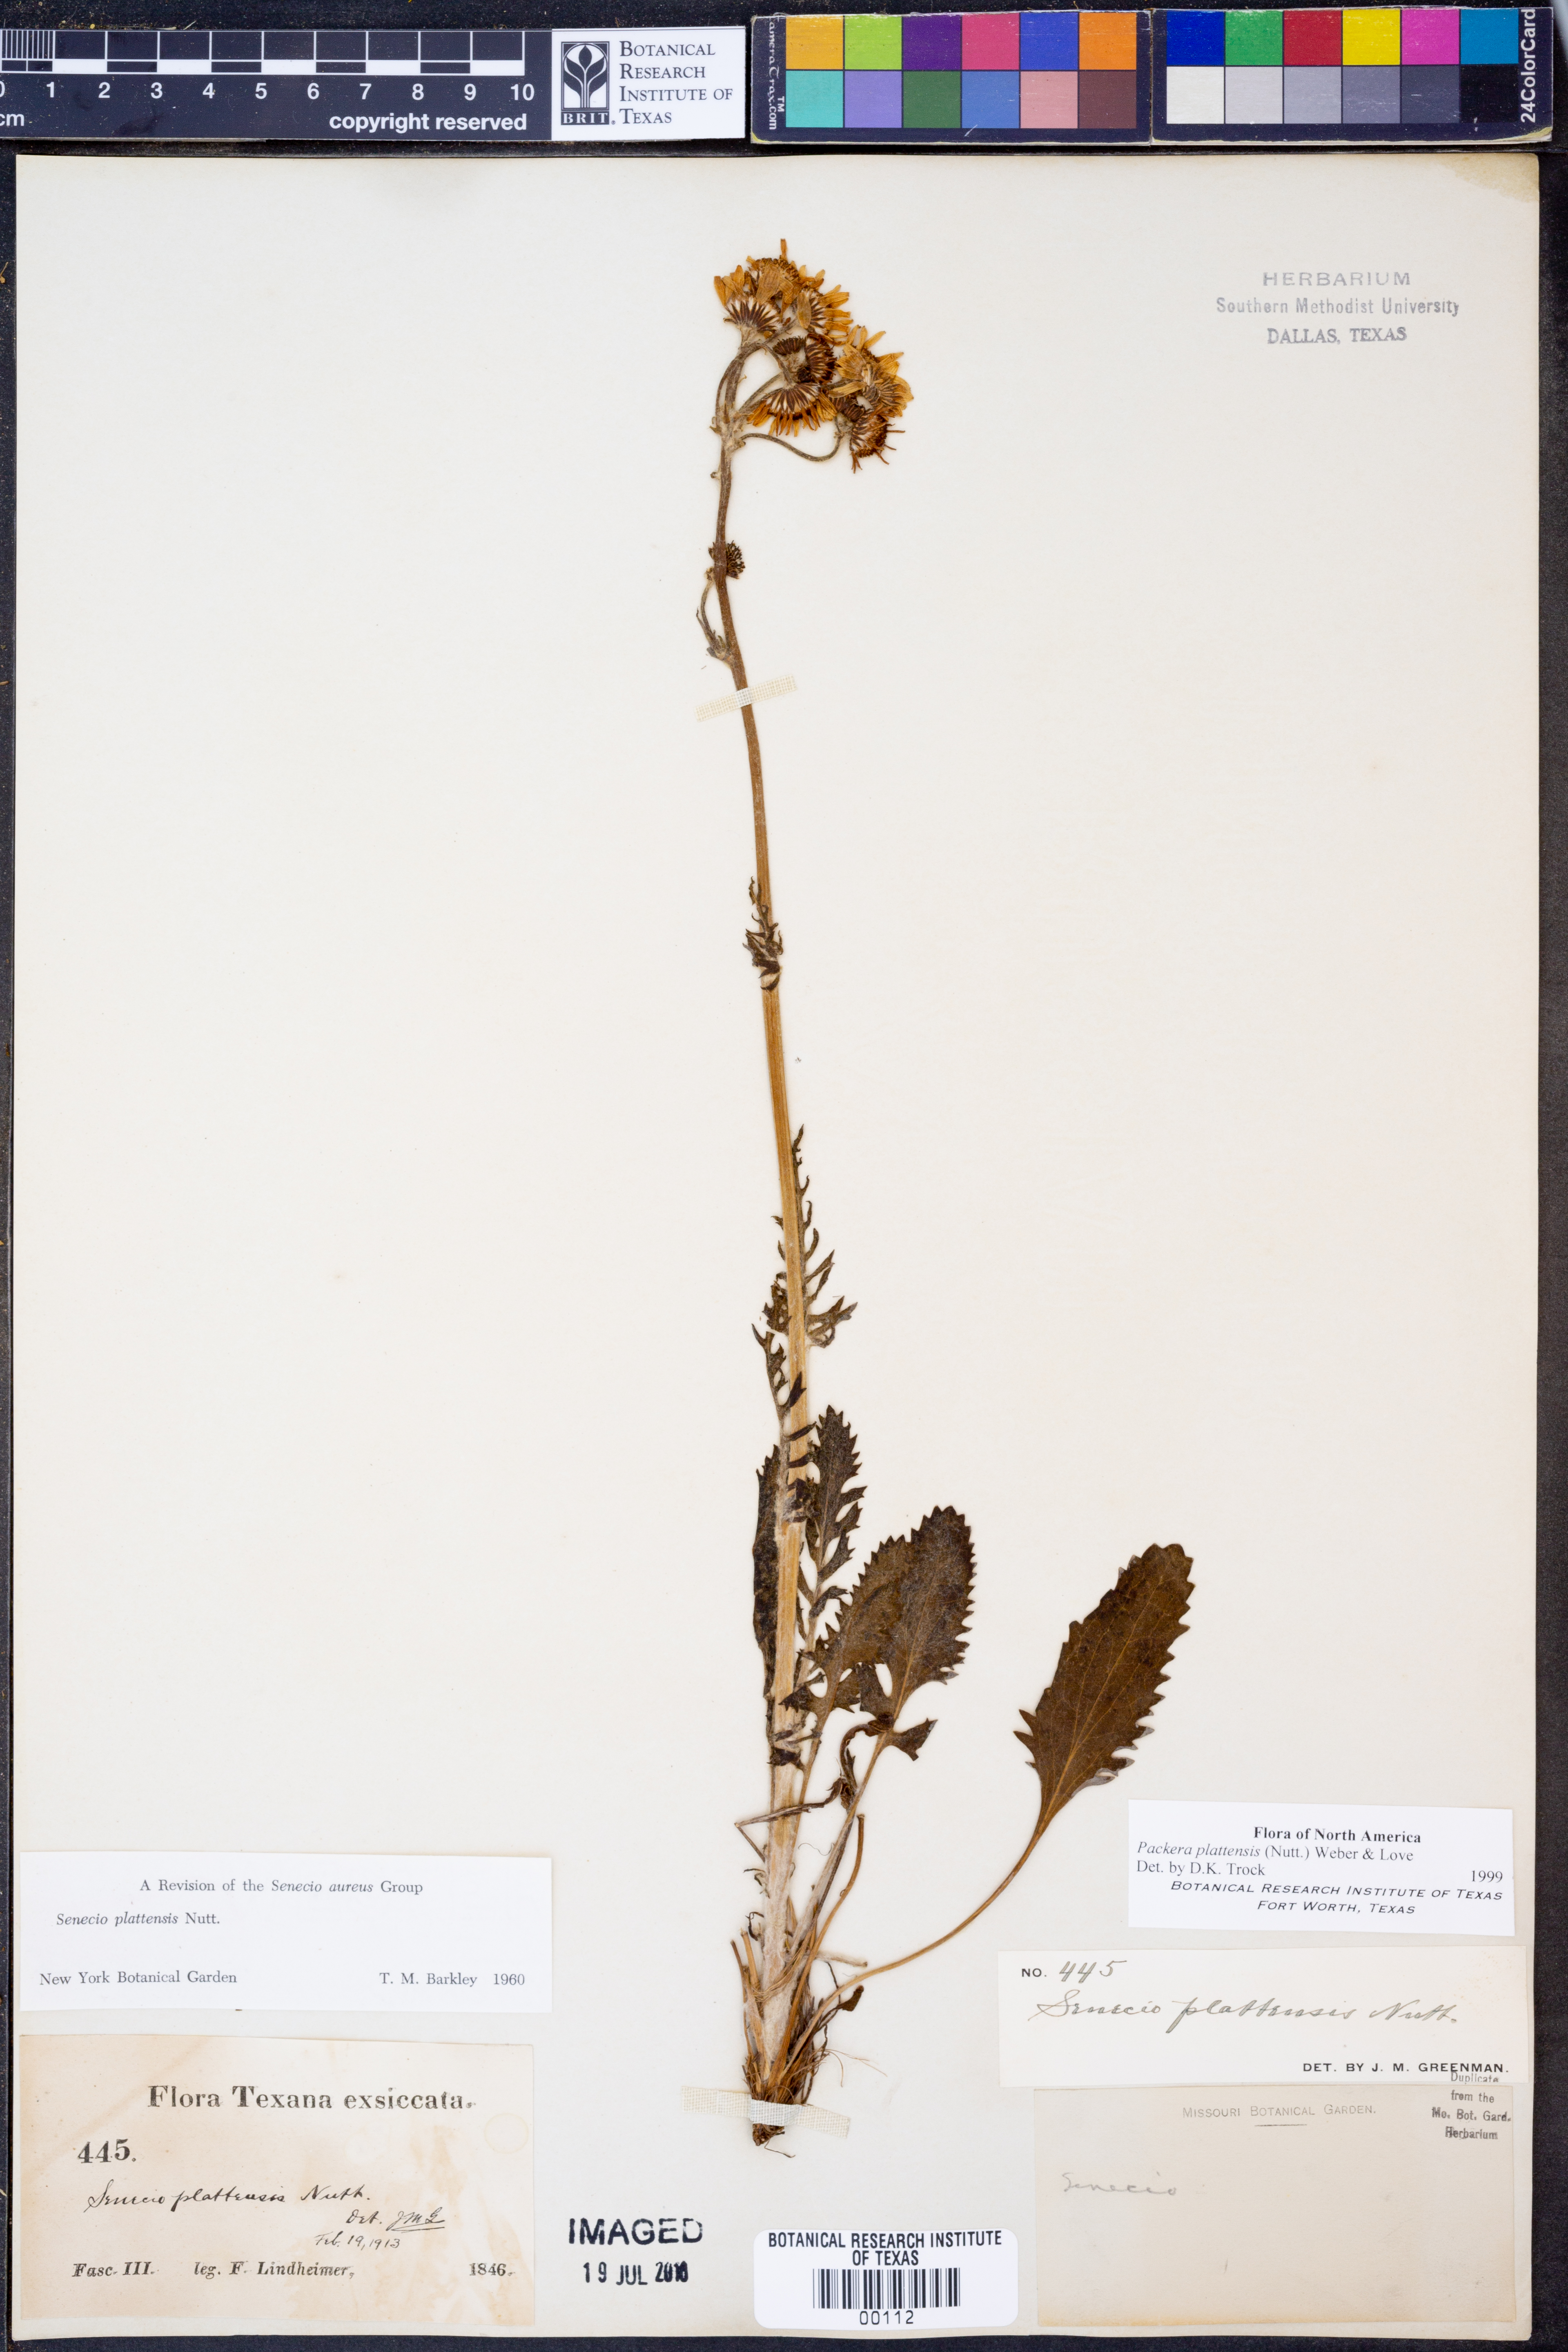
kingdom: Plantae
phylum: Tracheophyta
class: Magnoliopsida
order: Asterales
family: Asteraceae
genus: Packera
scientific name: Packera plattensis
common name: Prairie groundsel
